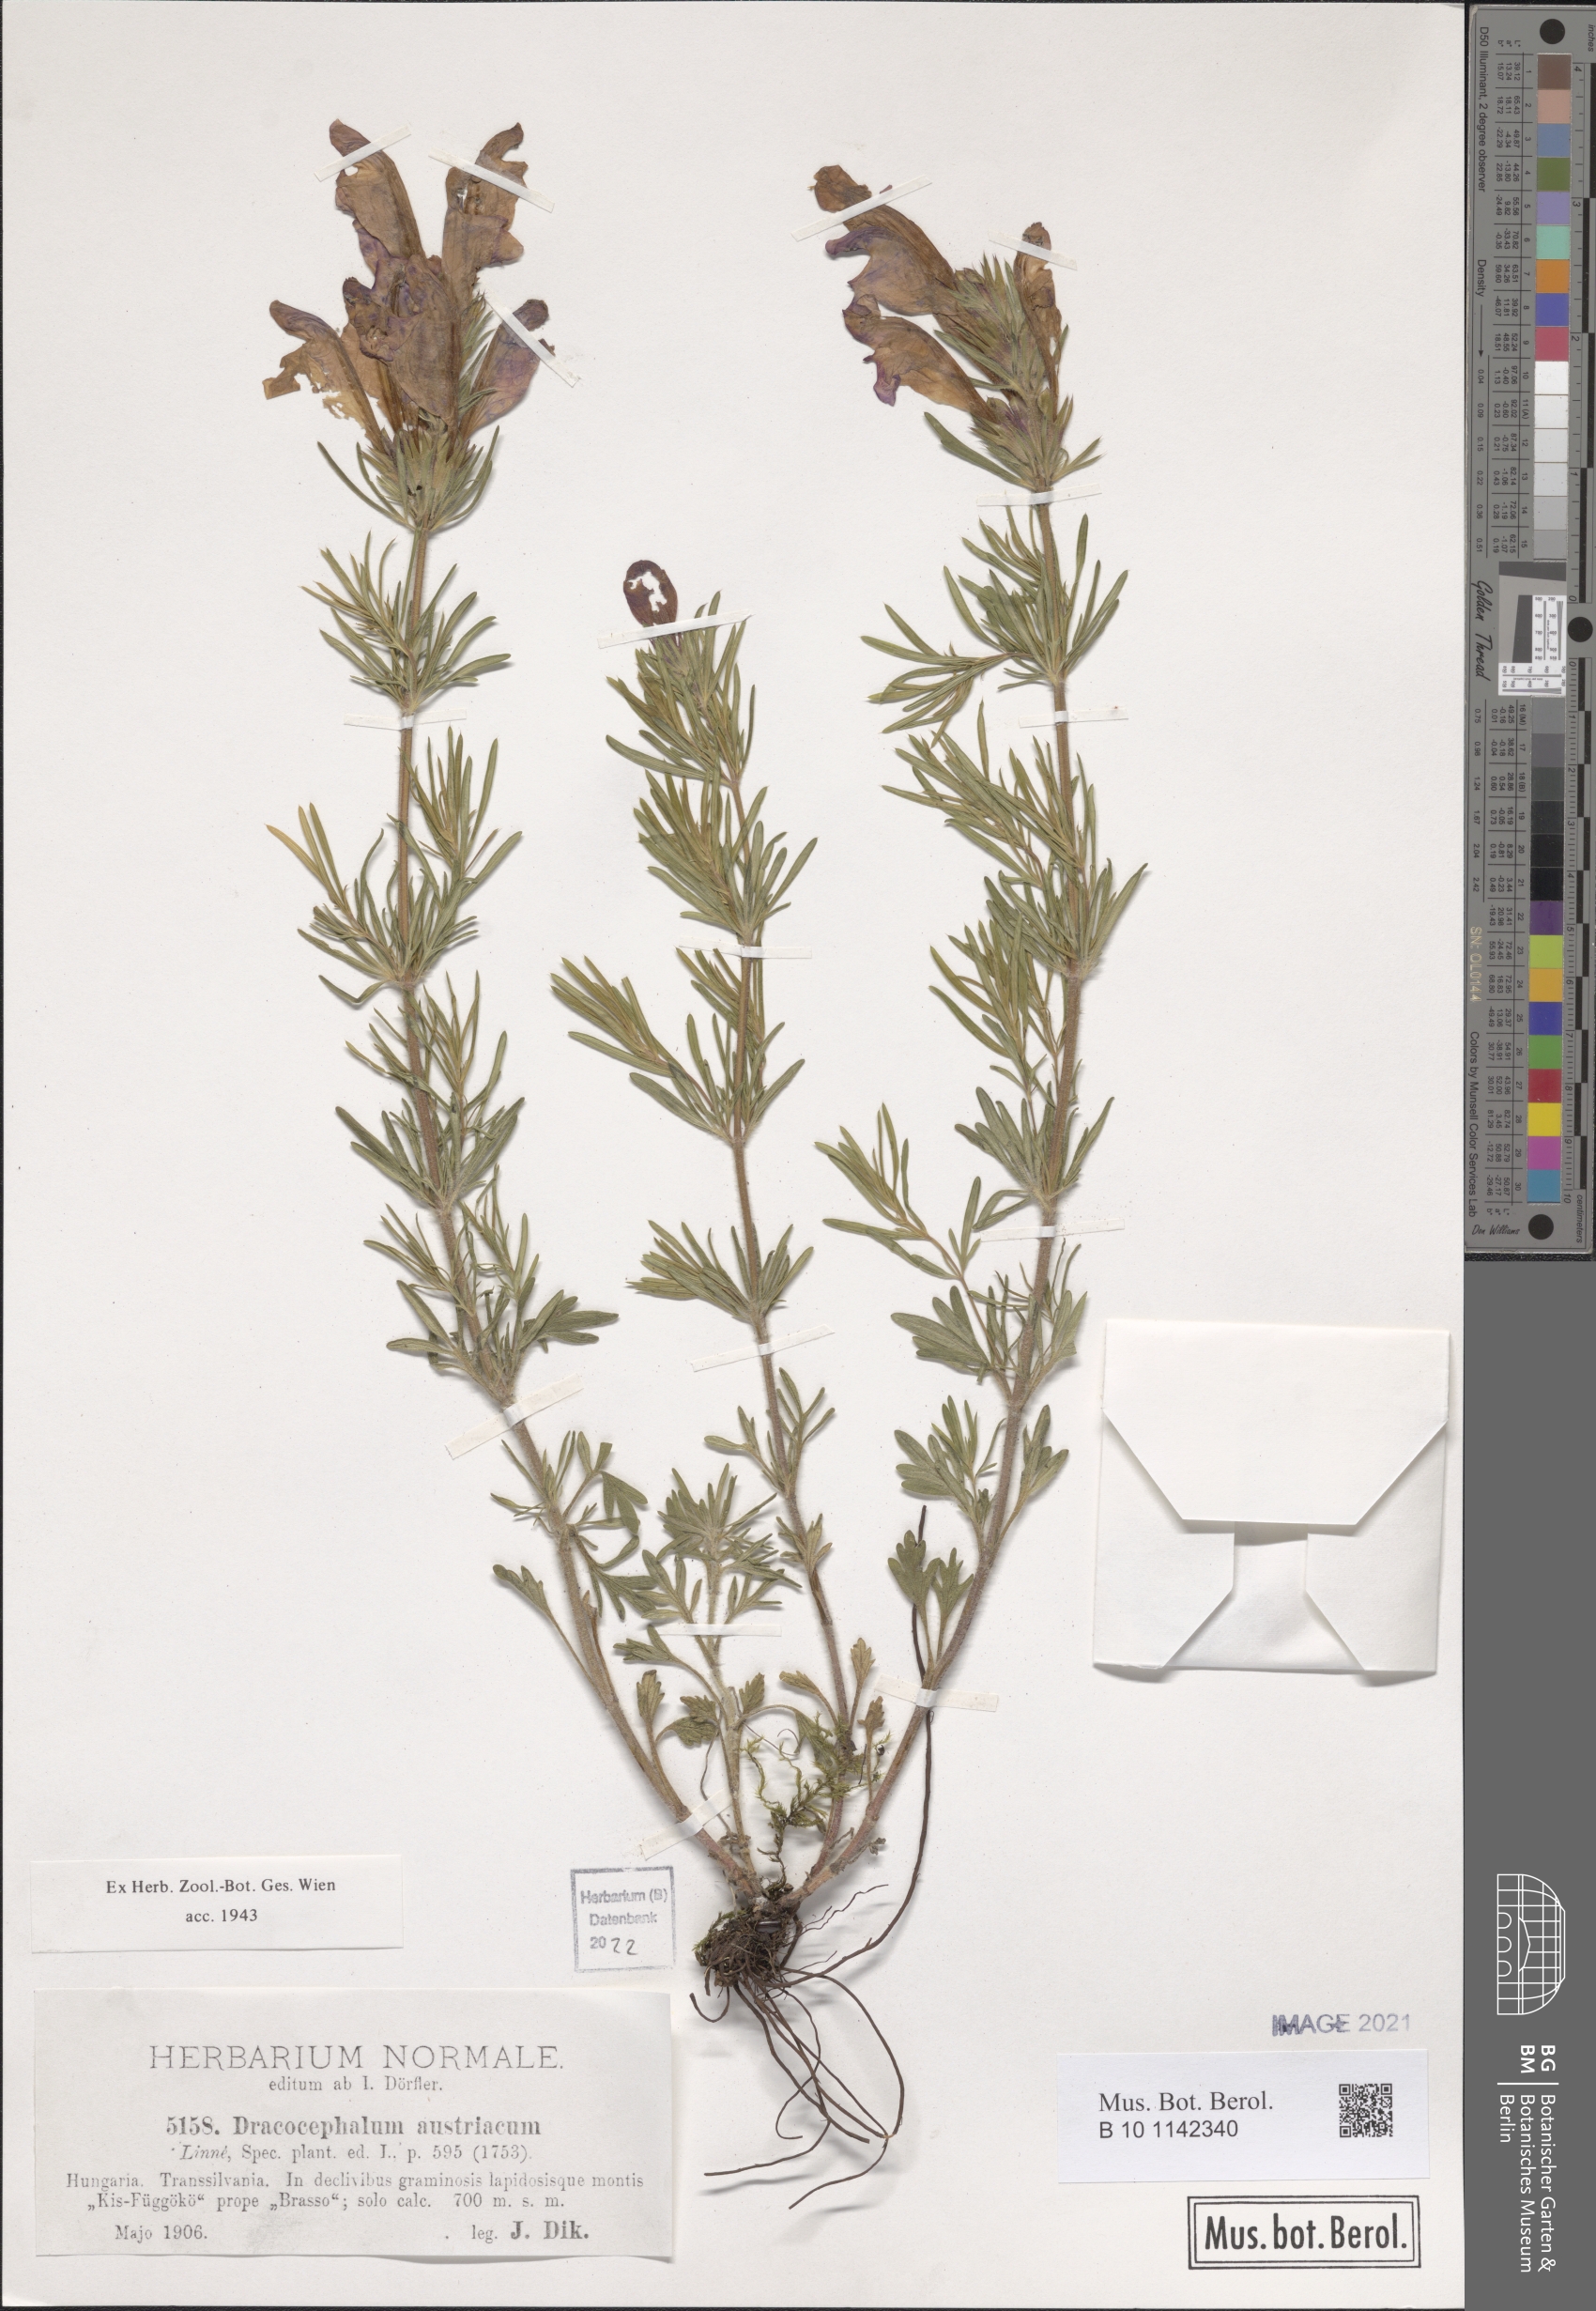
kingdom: Plantae
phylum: Tracheophyta
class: Magnoliopsida
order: Lamiales
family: Lamiaceae
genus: Dracocephalum
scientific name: Dracocephalum austriacum
